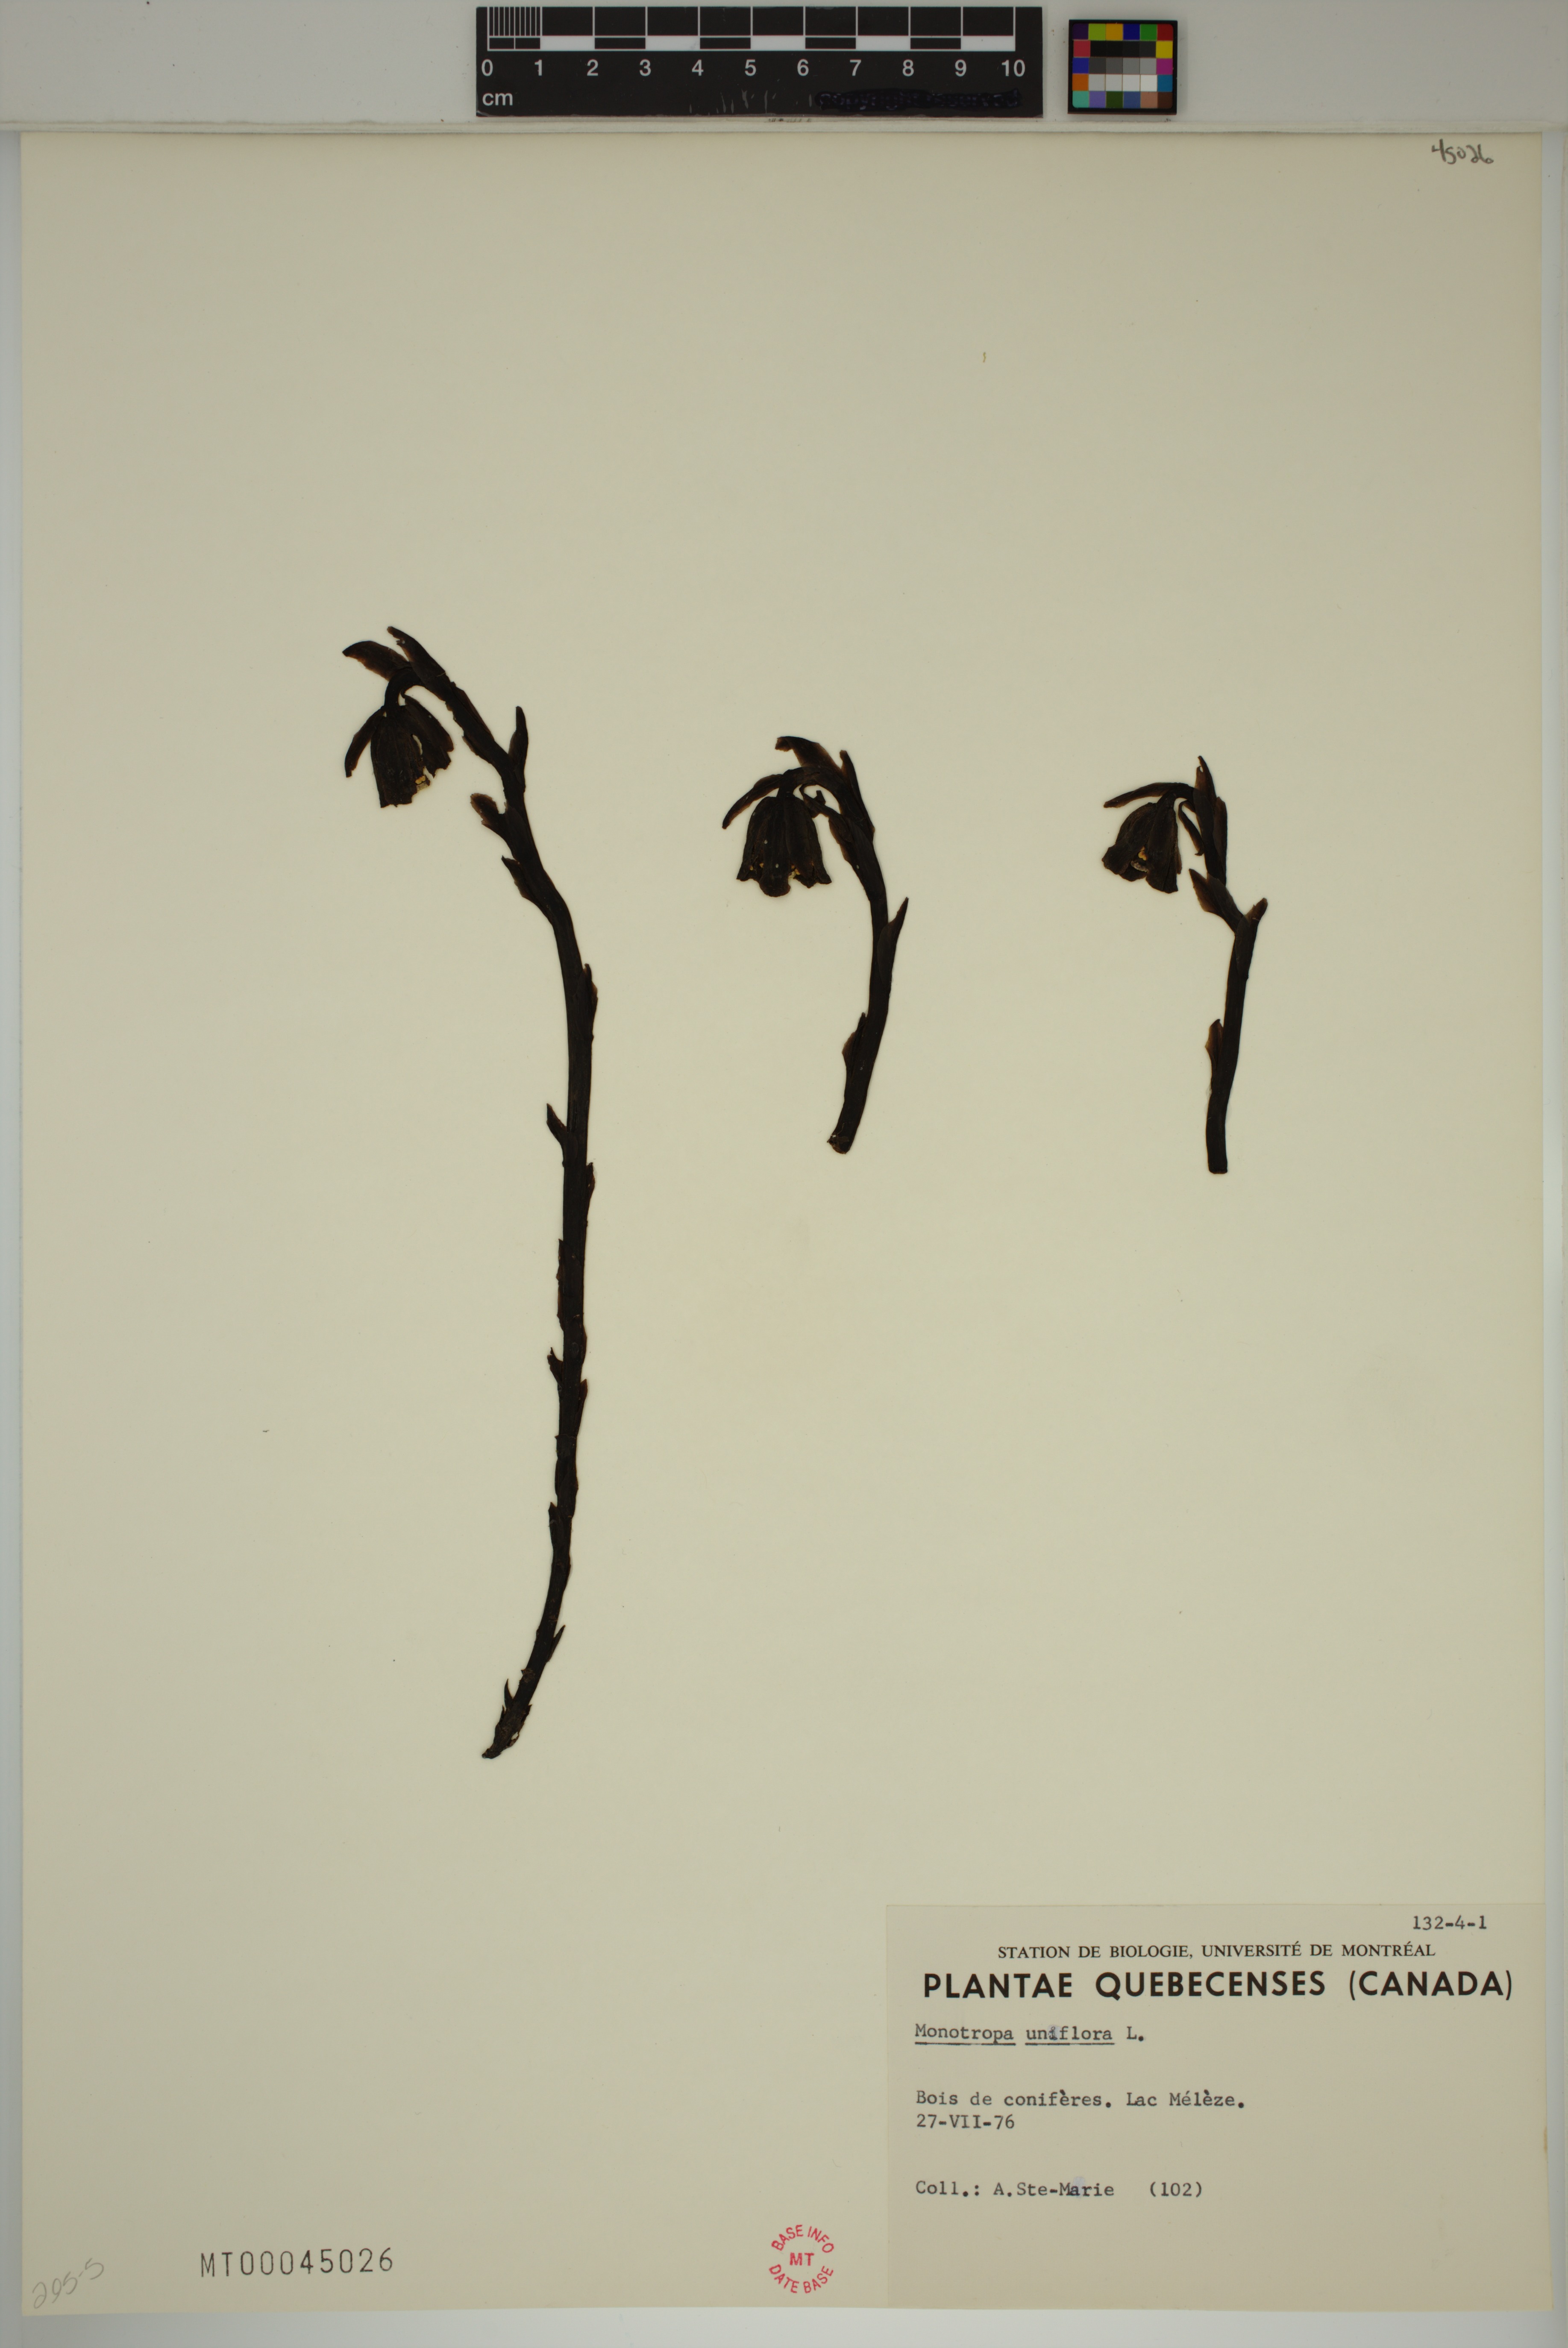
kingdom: Plantae
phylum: Tracheophyta
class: Magnoliopsida
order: Ericales
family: Ericaceae
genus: Monotropa
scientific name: Monotropa uniflora
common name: Convulsion root
